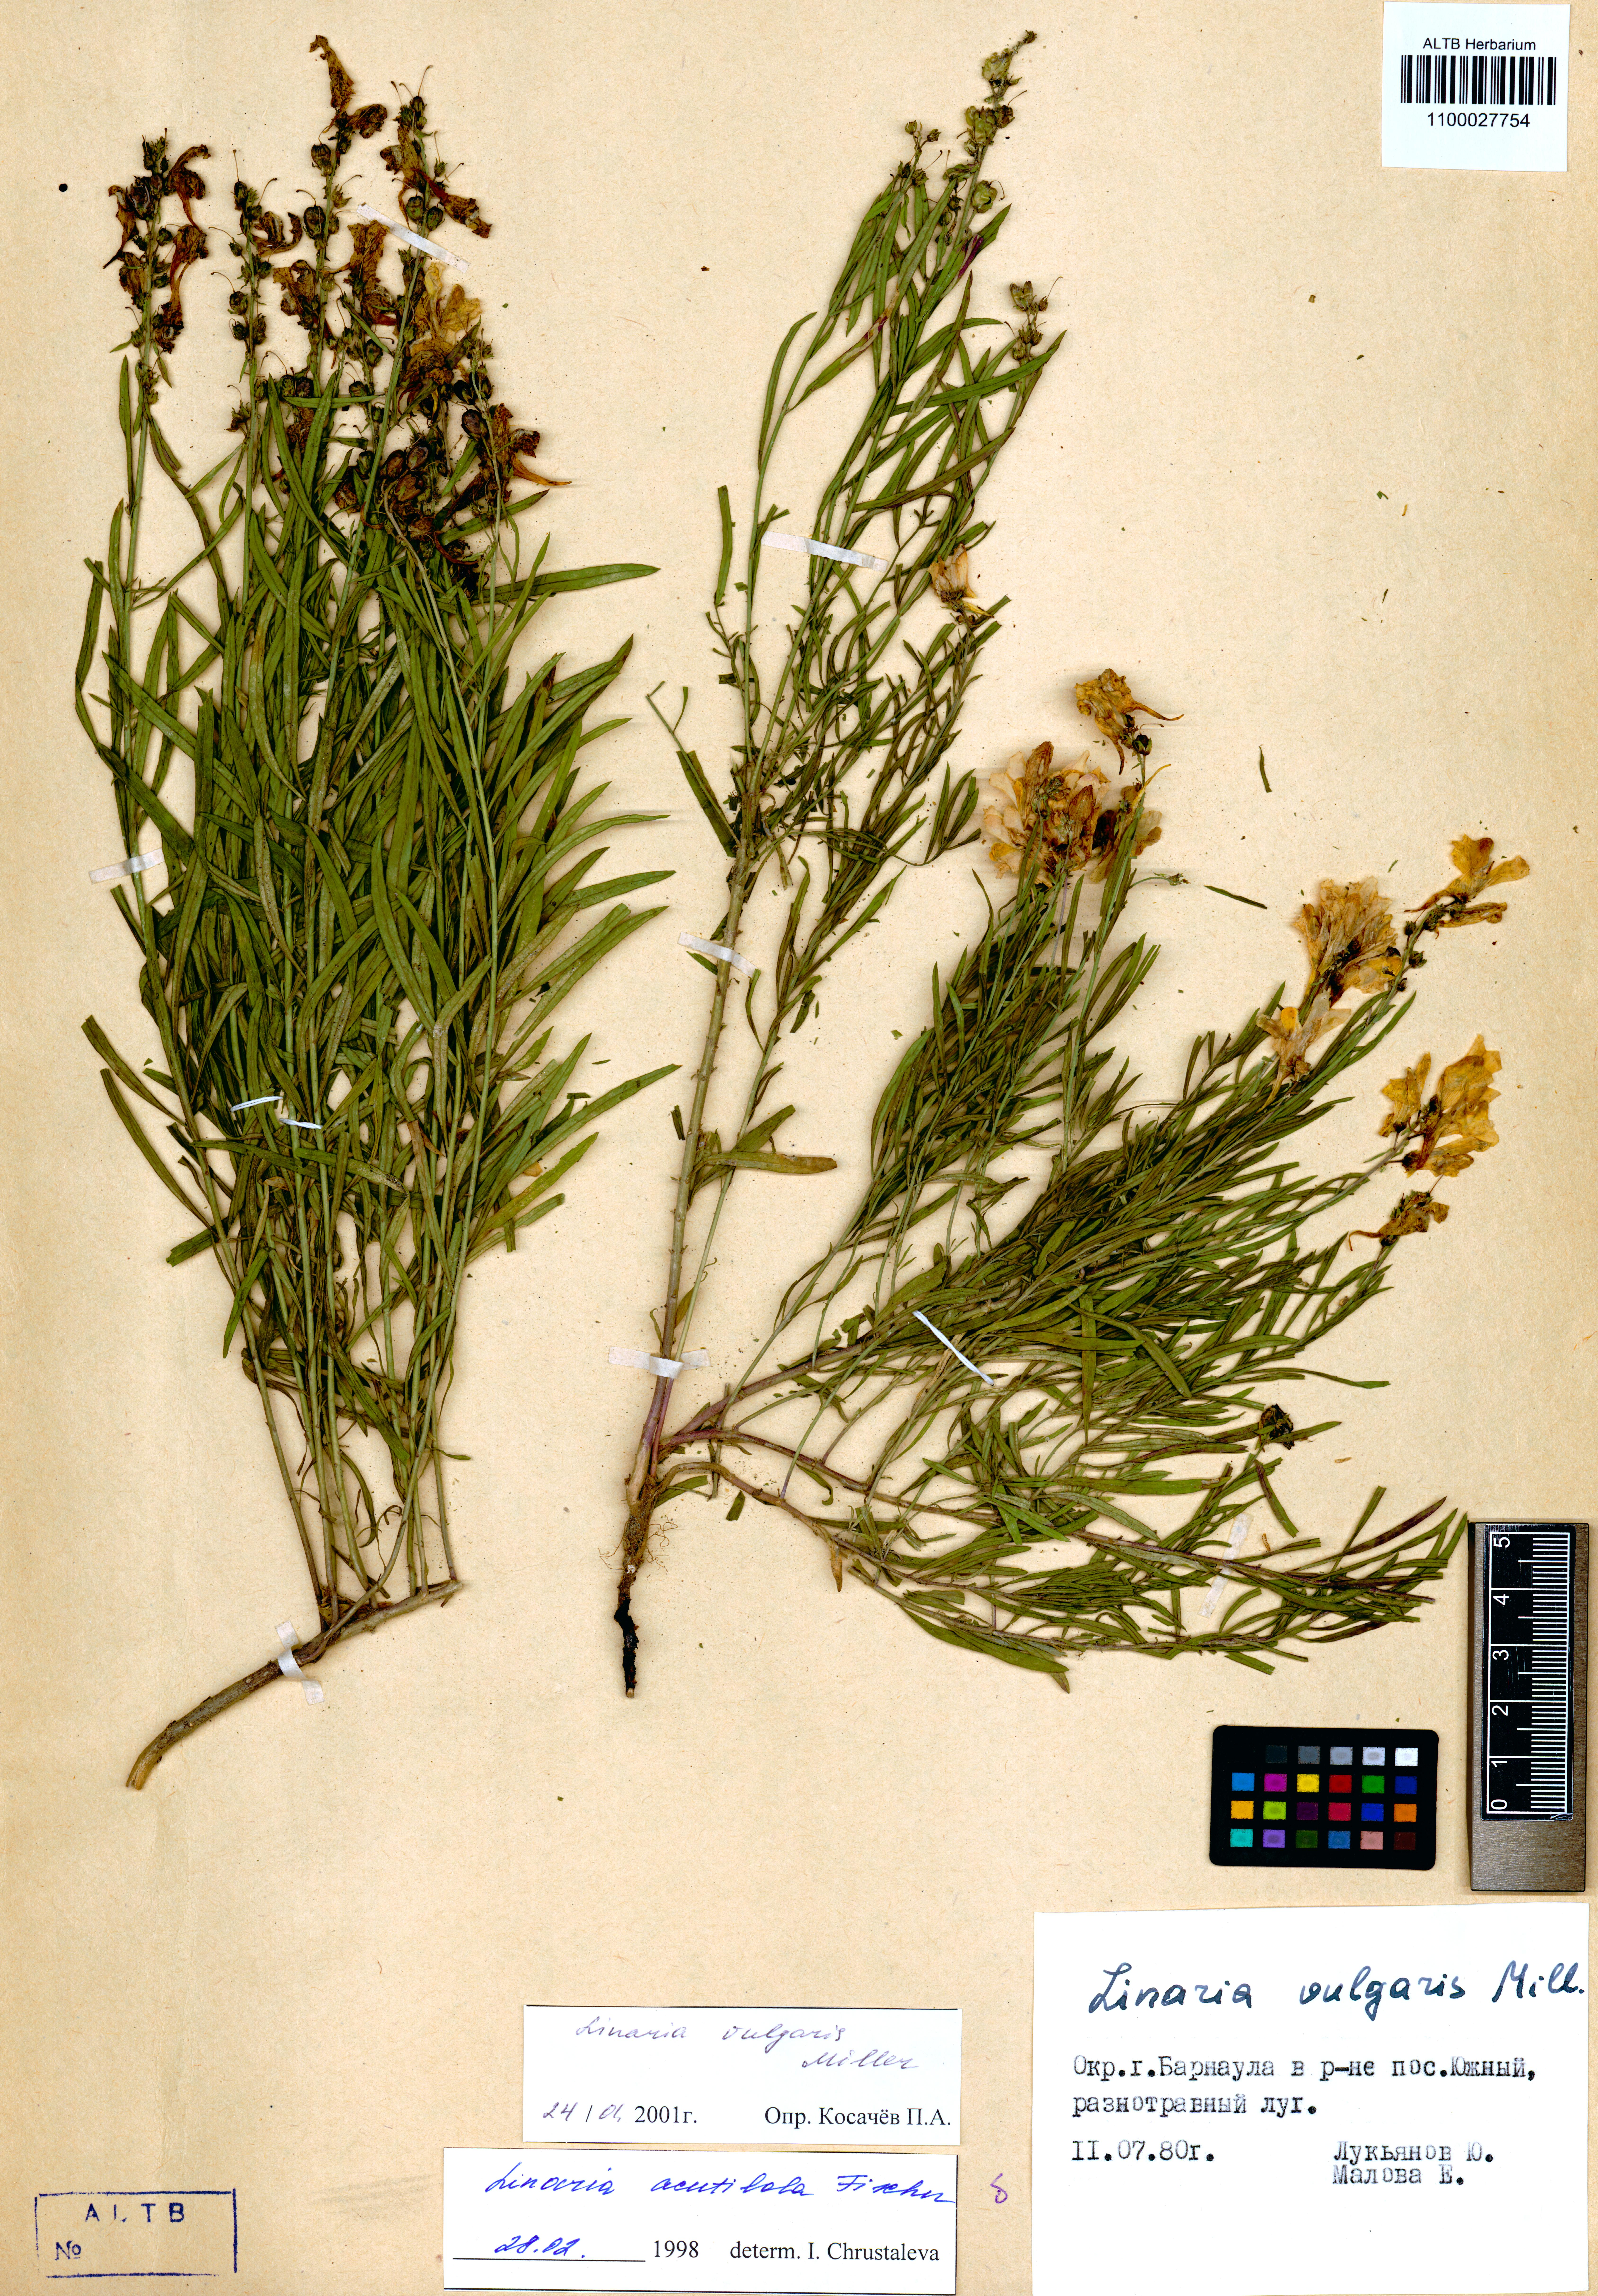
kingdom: Plantae
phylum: Tracheophyta
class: Magnoliopsida
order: Lamiales
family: Plantaginaceae
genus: Linaria
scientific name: Linaria vulgaris
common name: Butter and eggs
